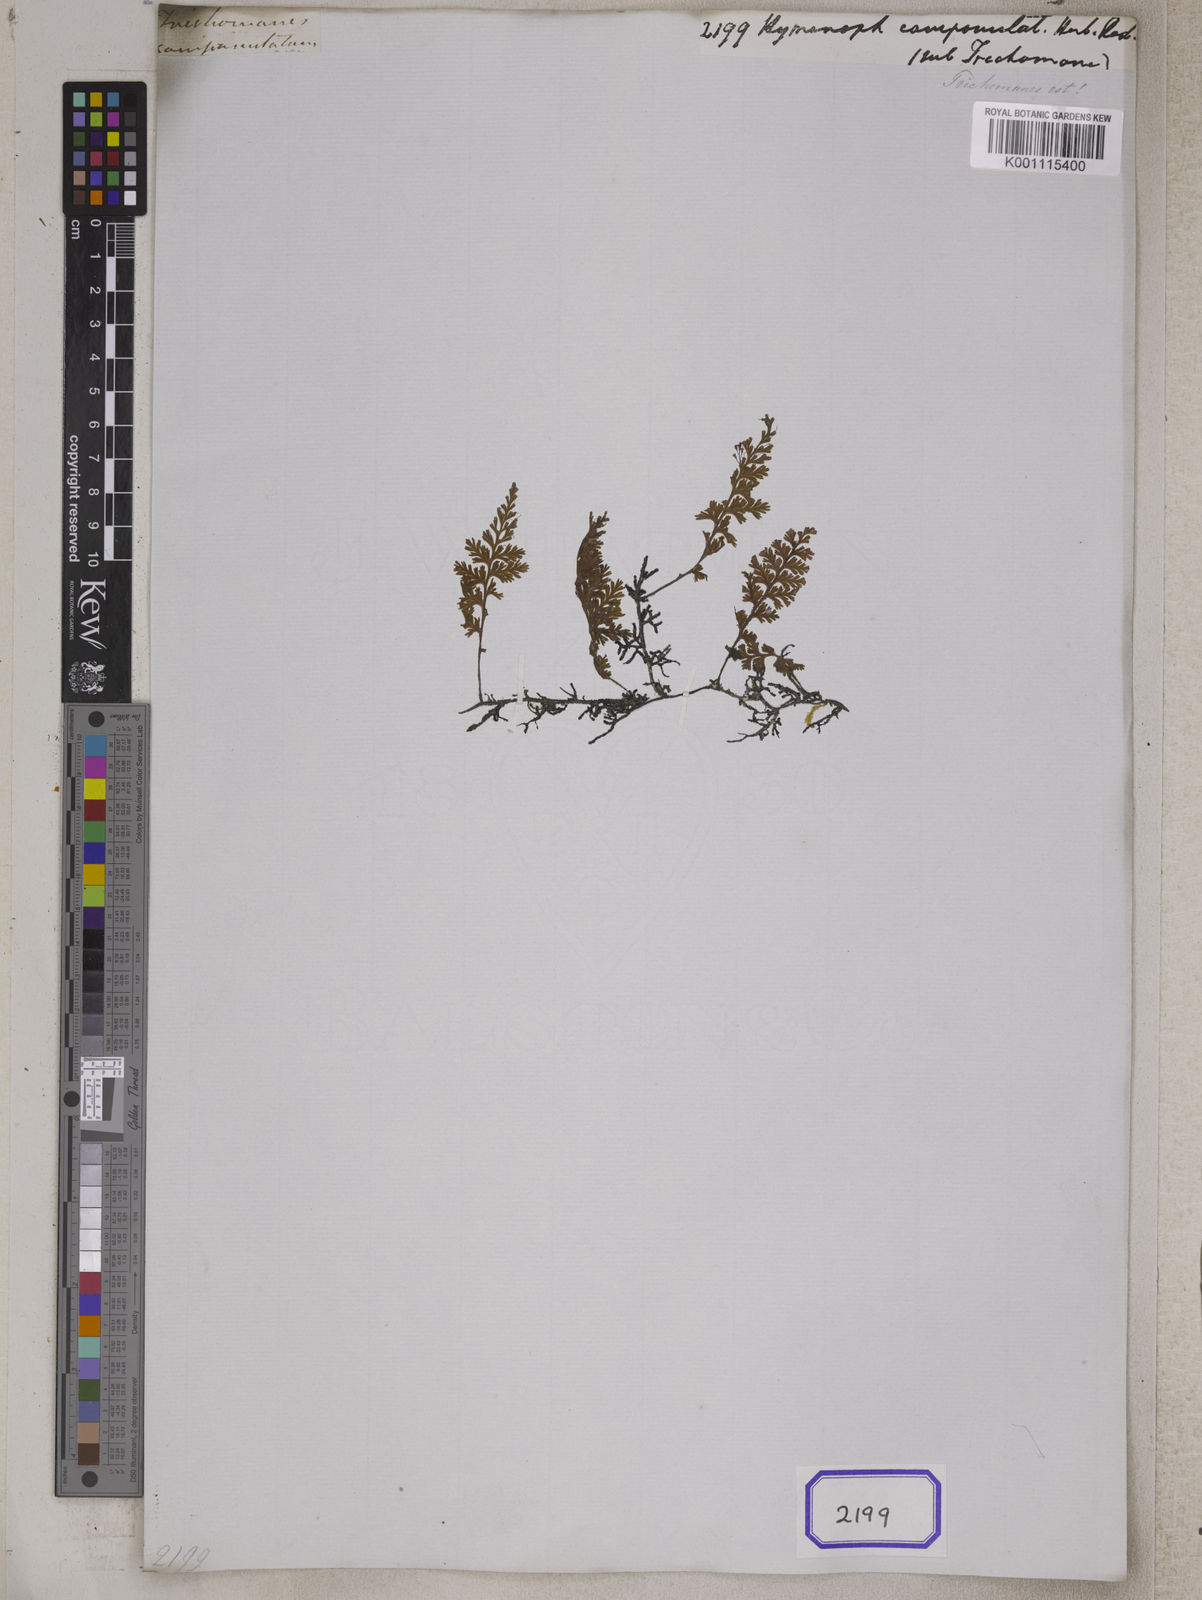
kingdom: Plantae
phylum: Tracheophyta
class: Polypodiopsida
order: Hymenophyllales
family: Hymenophyllaceae
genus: Hymenophyllum
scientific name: Hymenophyllum
